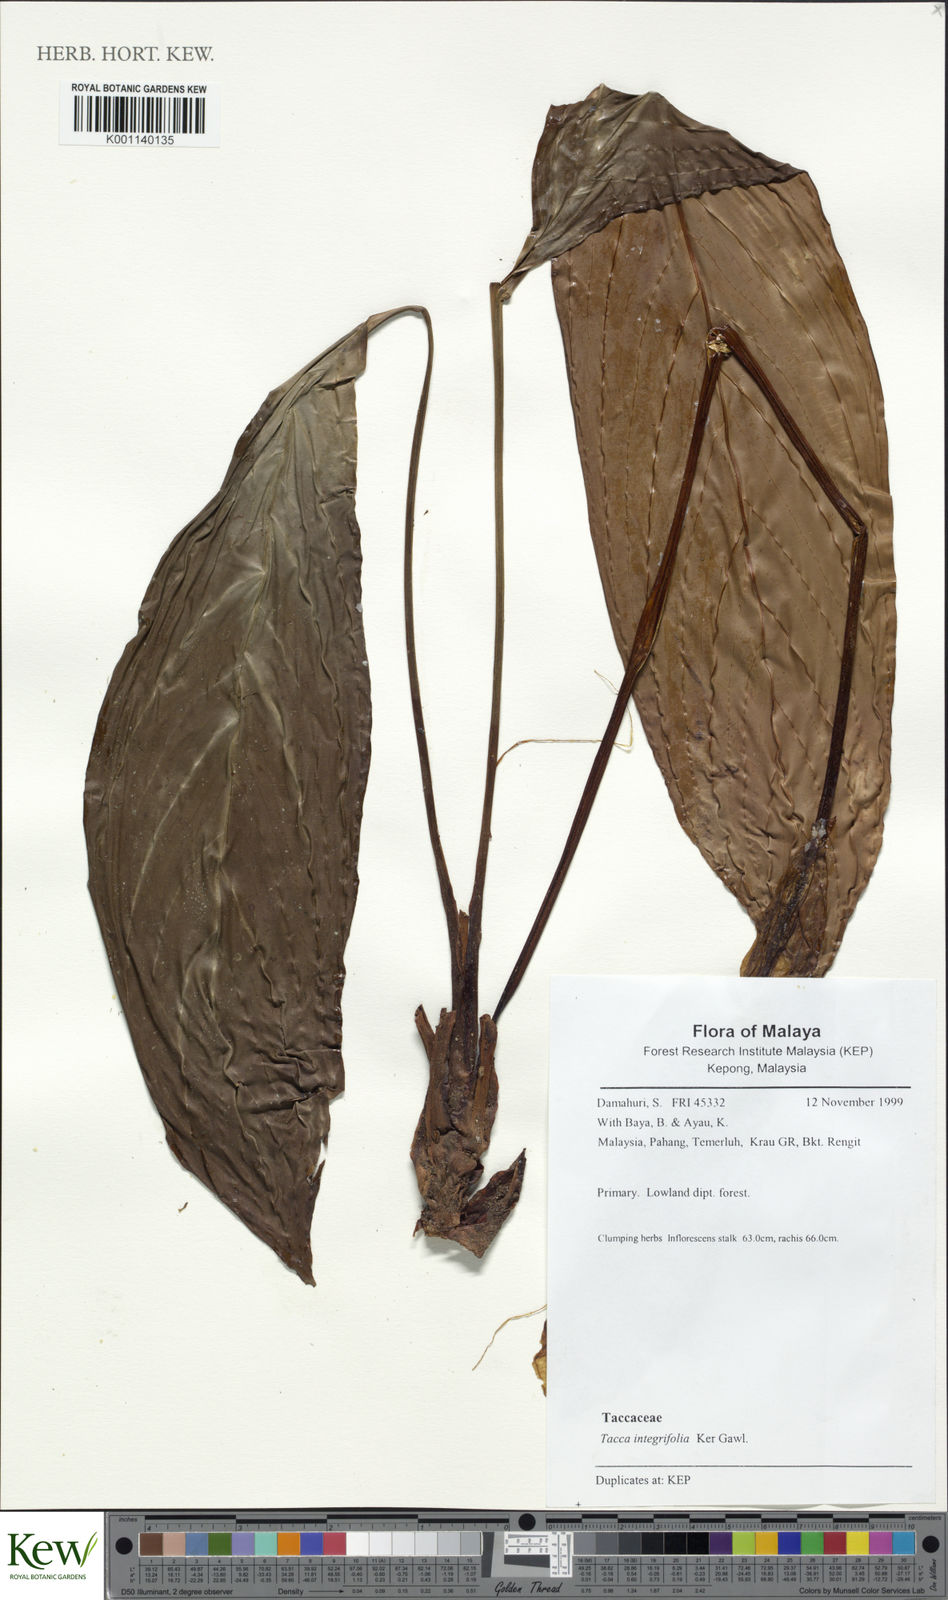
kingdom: Plantae
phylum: Tracheophyta
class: Liliopsida
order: Dioscoreales
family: Dioscoreaceae
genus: Tacca
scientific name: Tacca integrifolia
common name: Batplant
